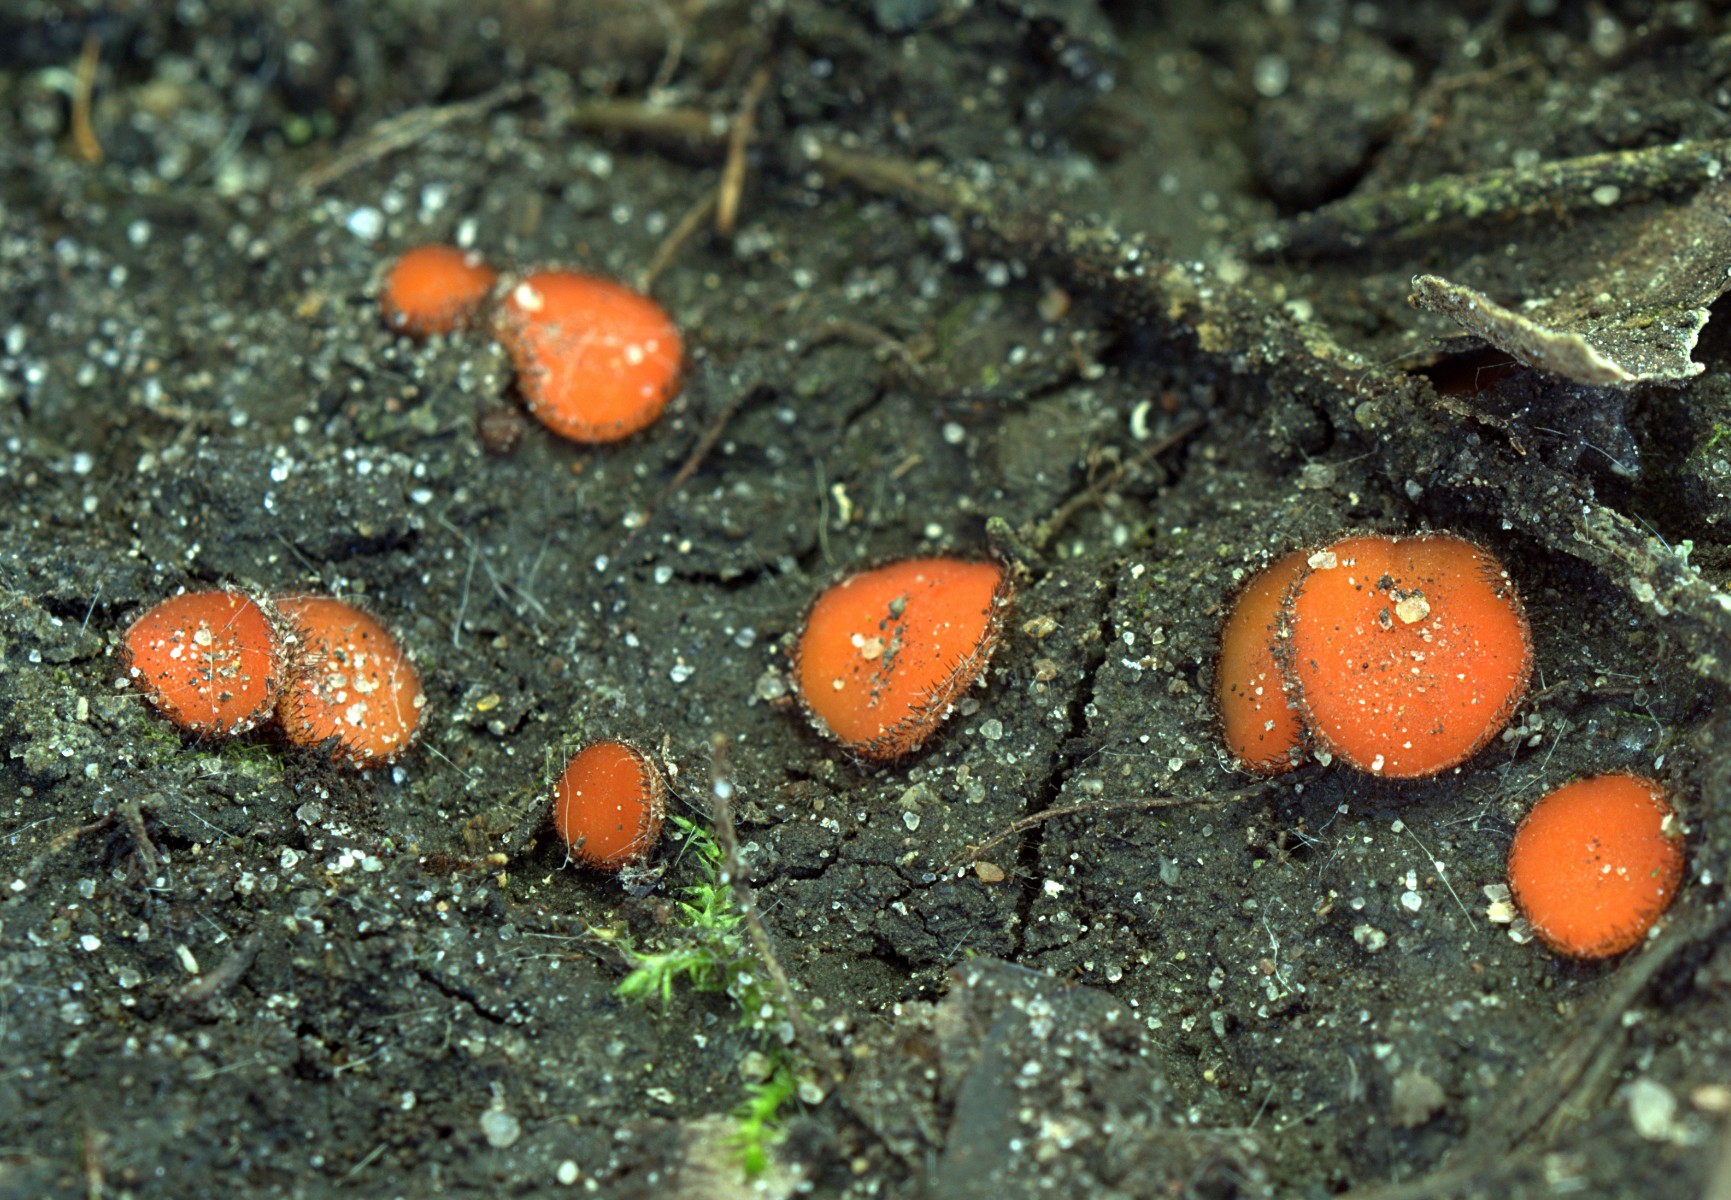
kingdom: Fungi
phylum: Ascomycota
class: Pezizomycetes
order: Pezizales
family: Pyronemataceae
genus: Scutellinia
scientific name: Scutellinia
